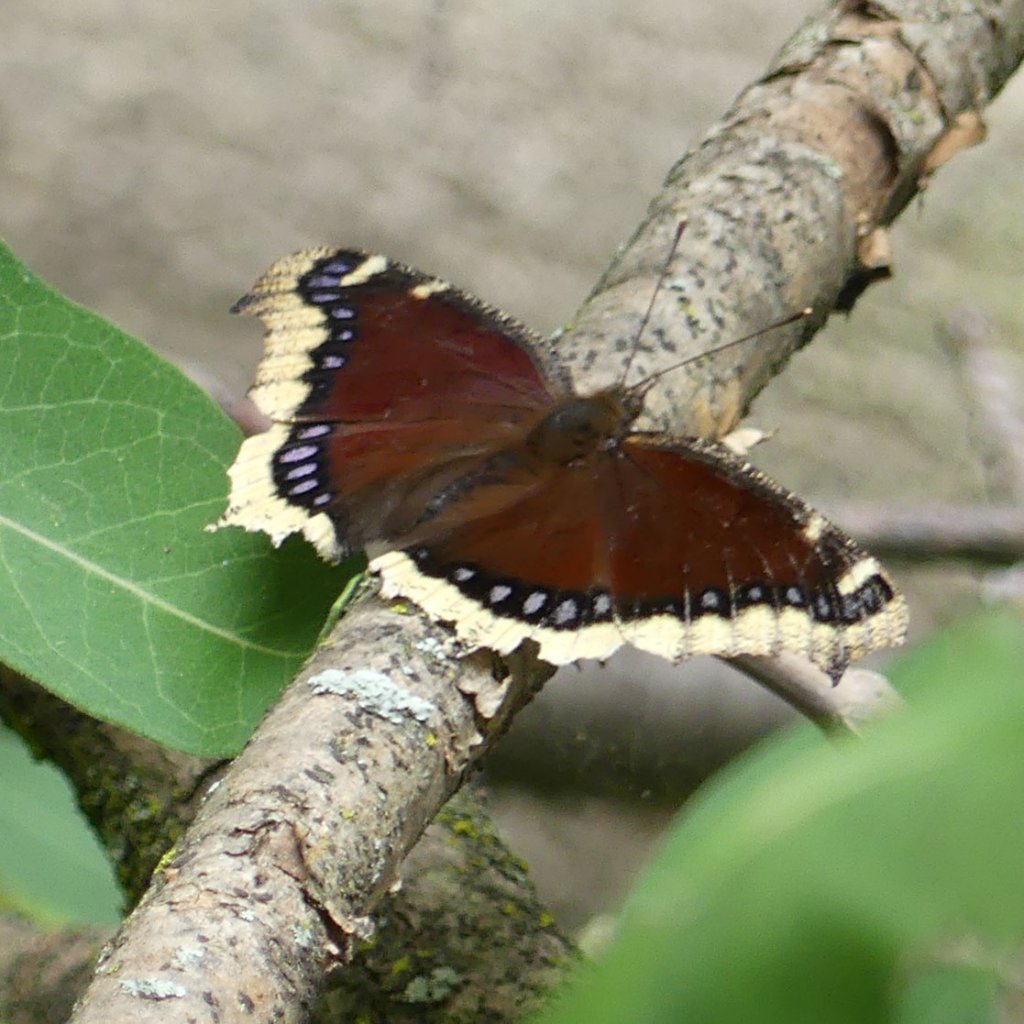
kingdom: Animalia
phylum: Arthropoda
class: Insecta
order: Lepidoptera
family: Nymphalidae
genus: Nymphalis
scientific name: Nymphalis antiopa
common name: Mourning Cloak
